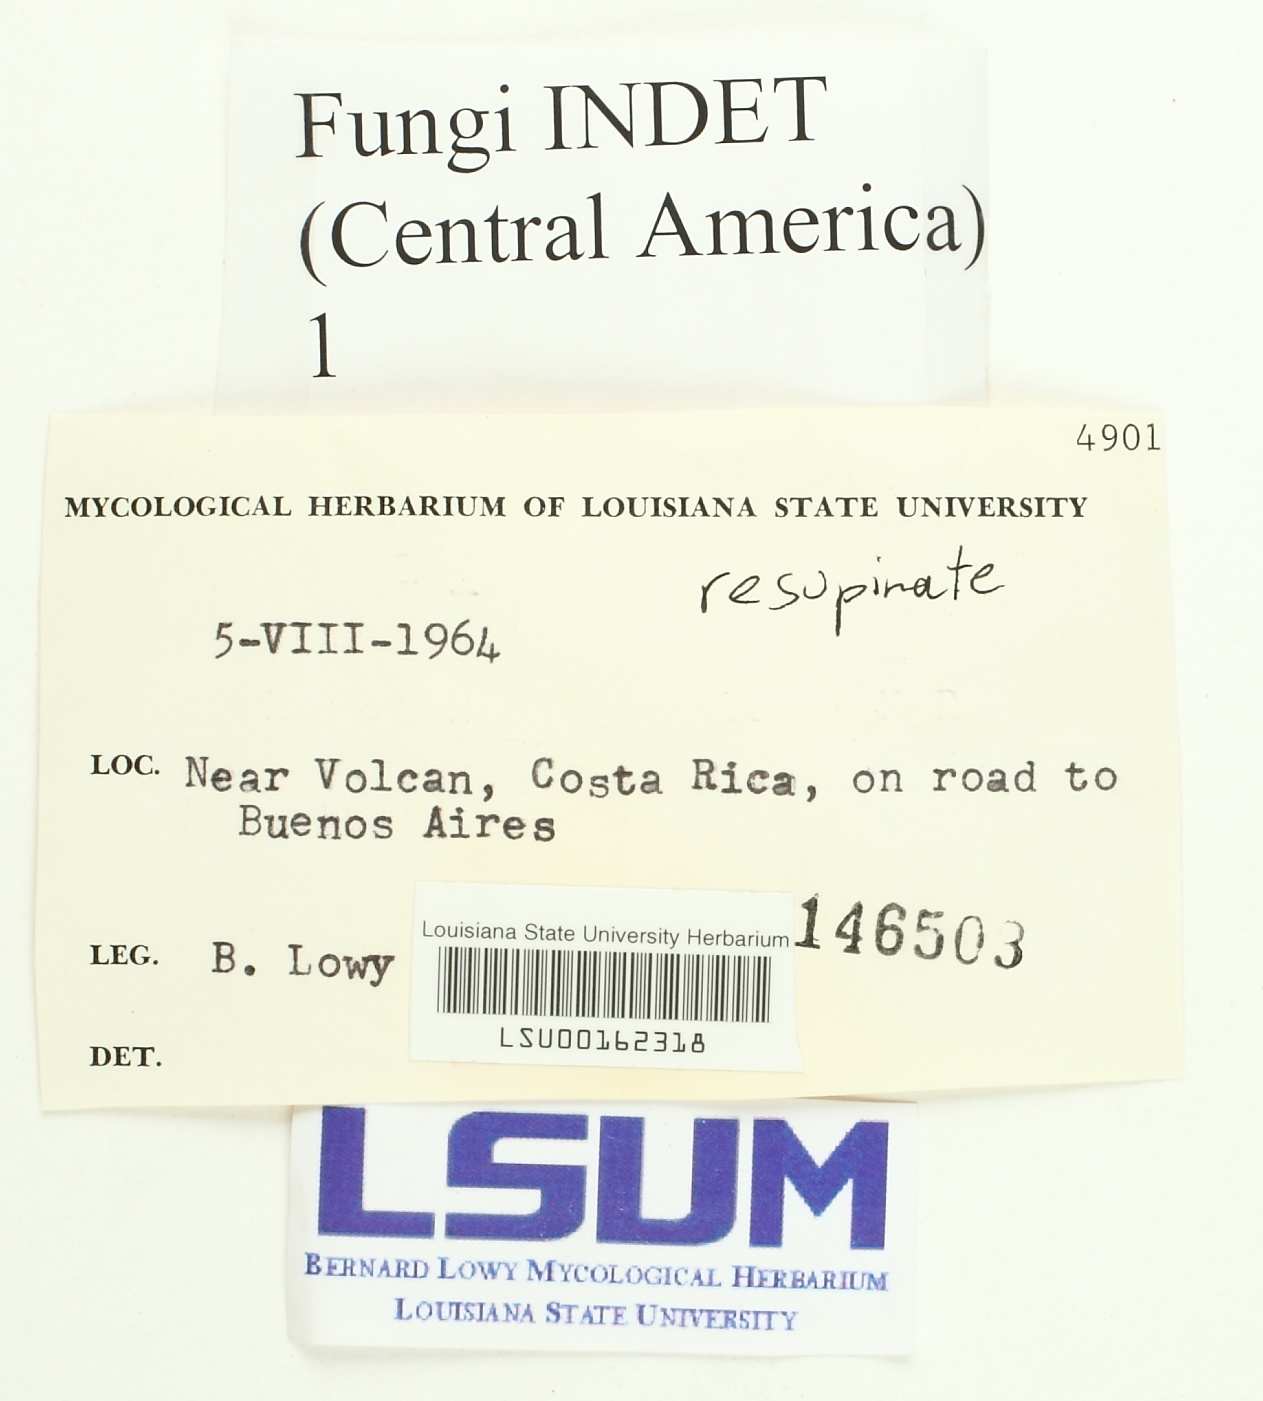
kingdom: Fungi
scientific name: Fungi
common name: Fungi
